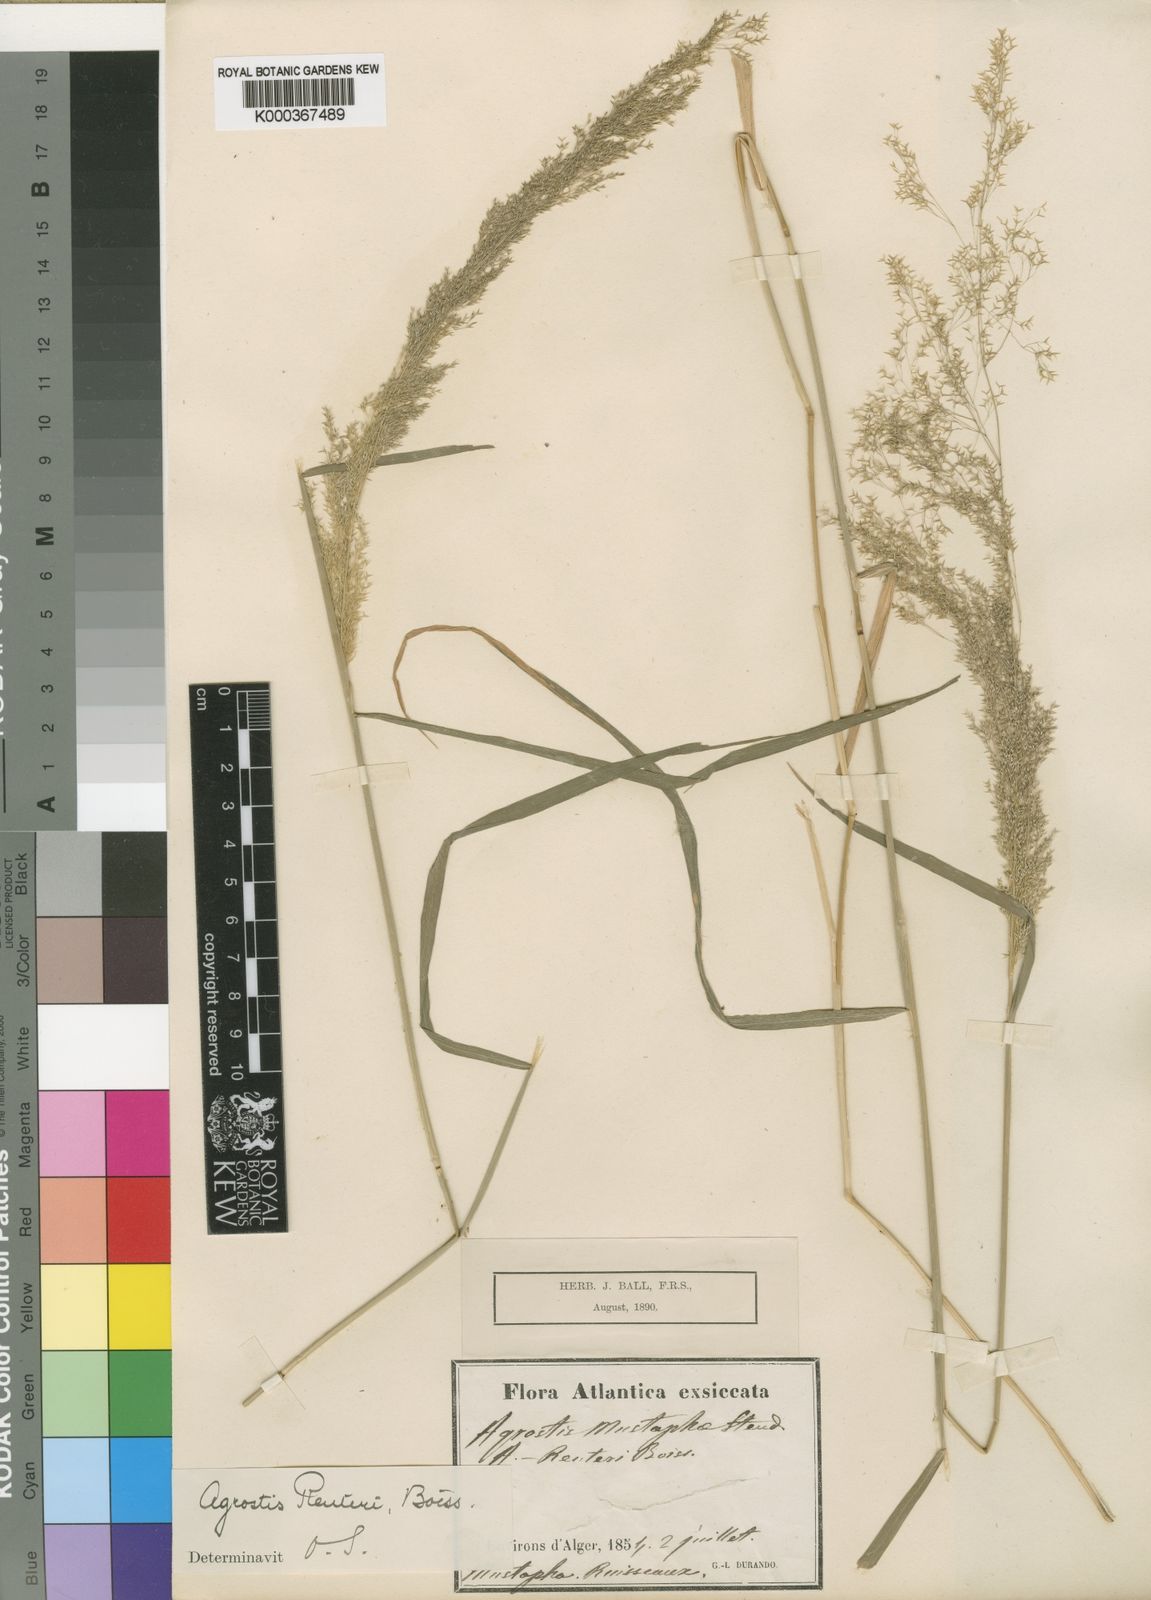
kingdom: Plantae
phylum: Tracheophyta
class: Liliopsida
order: Poales
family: Poaceae
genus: Agrostis
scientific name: Agrostis reuteri
